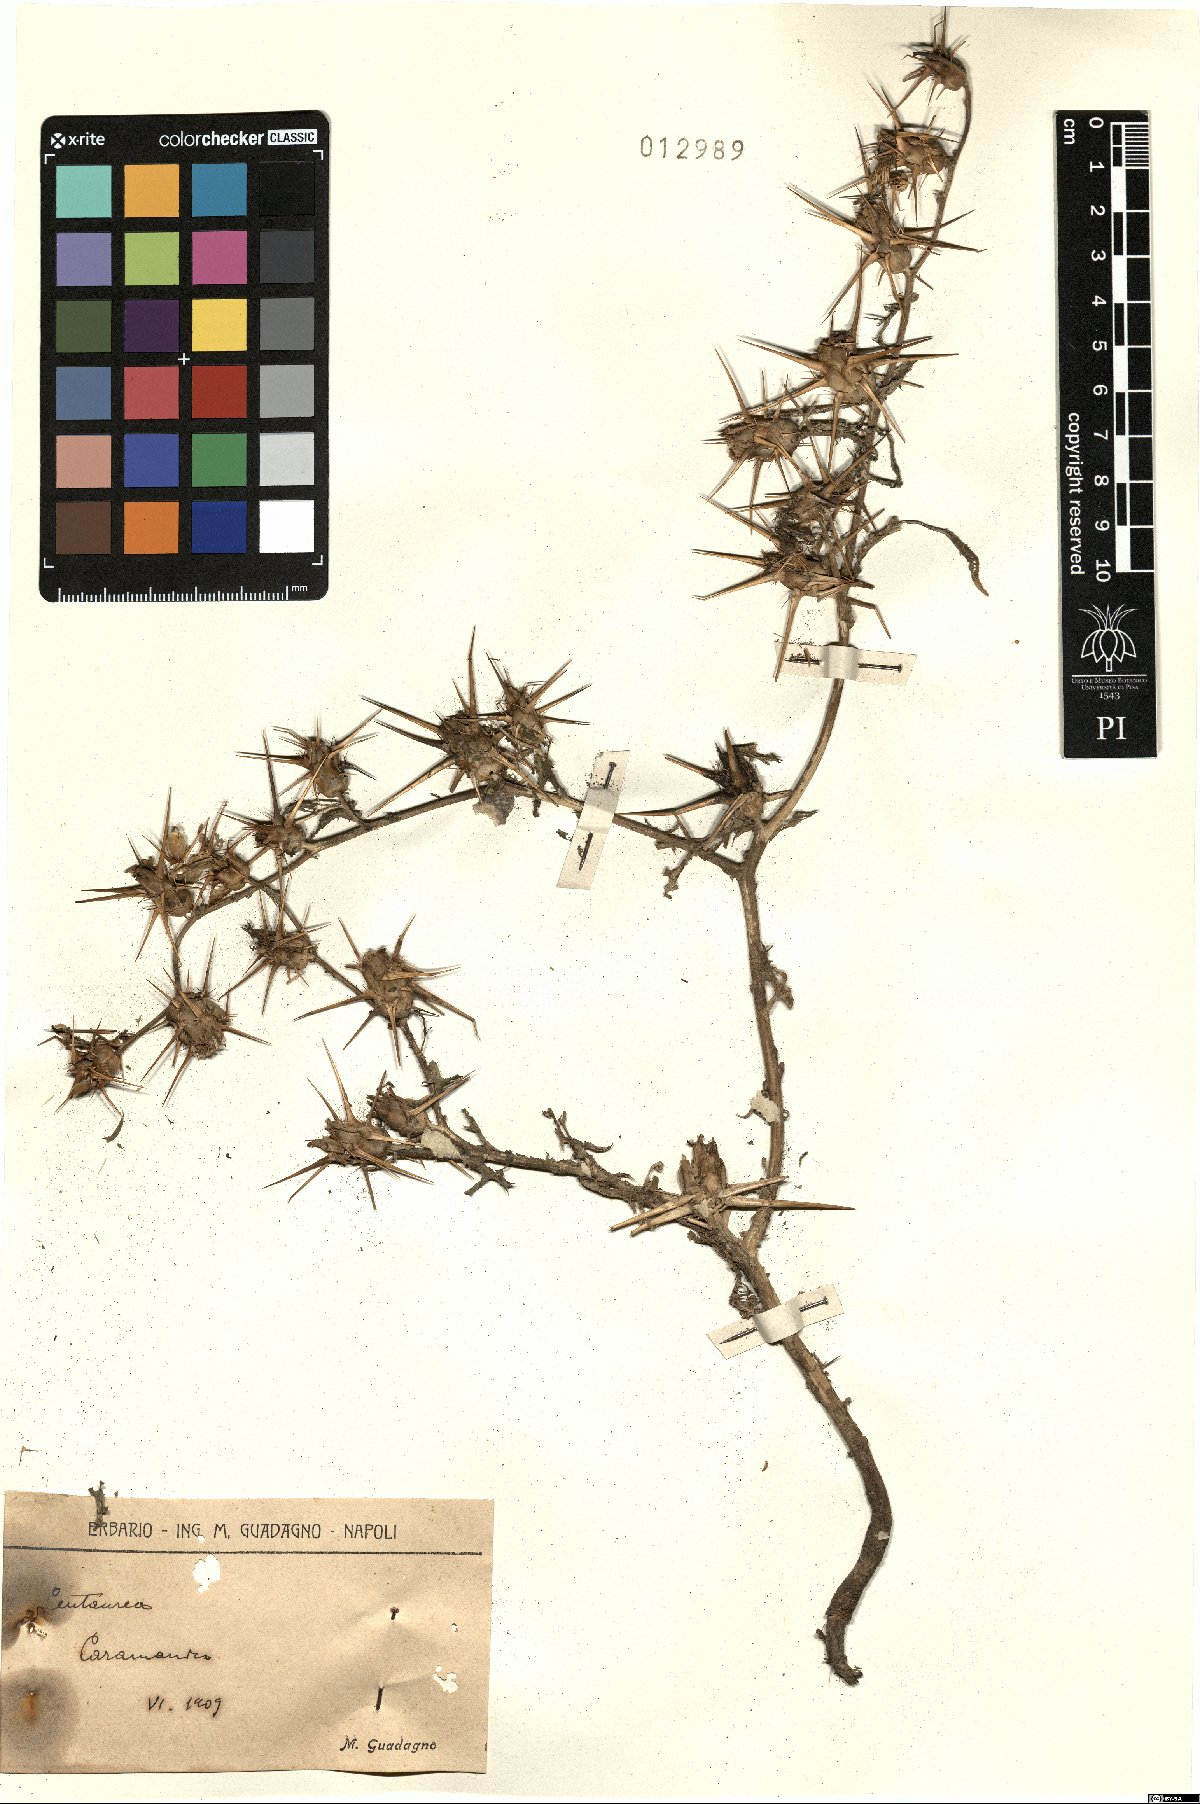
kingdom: Plantae
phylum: Tracheophyta
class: Magnoliopsida
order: Asterales
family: Asteraceae
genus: Centaurea
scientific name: Centaurea
